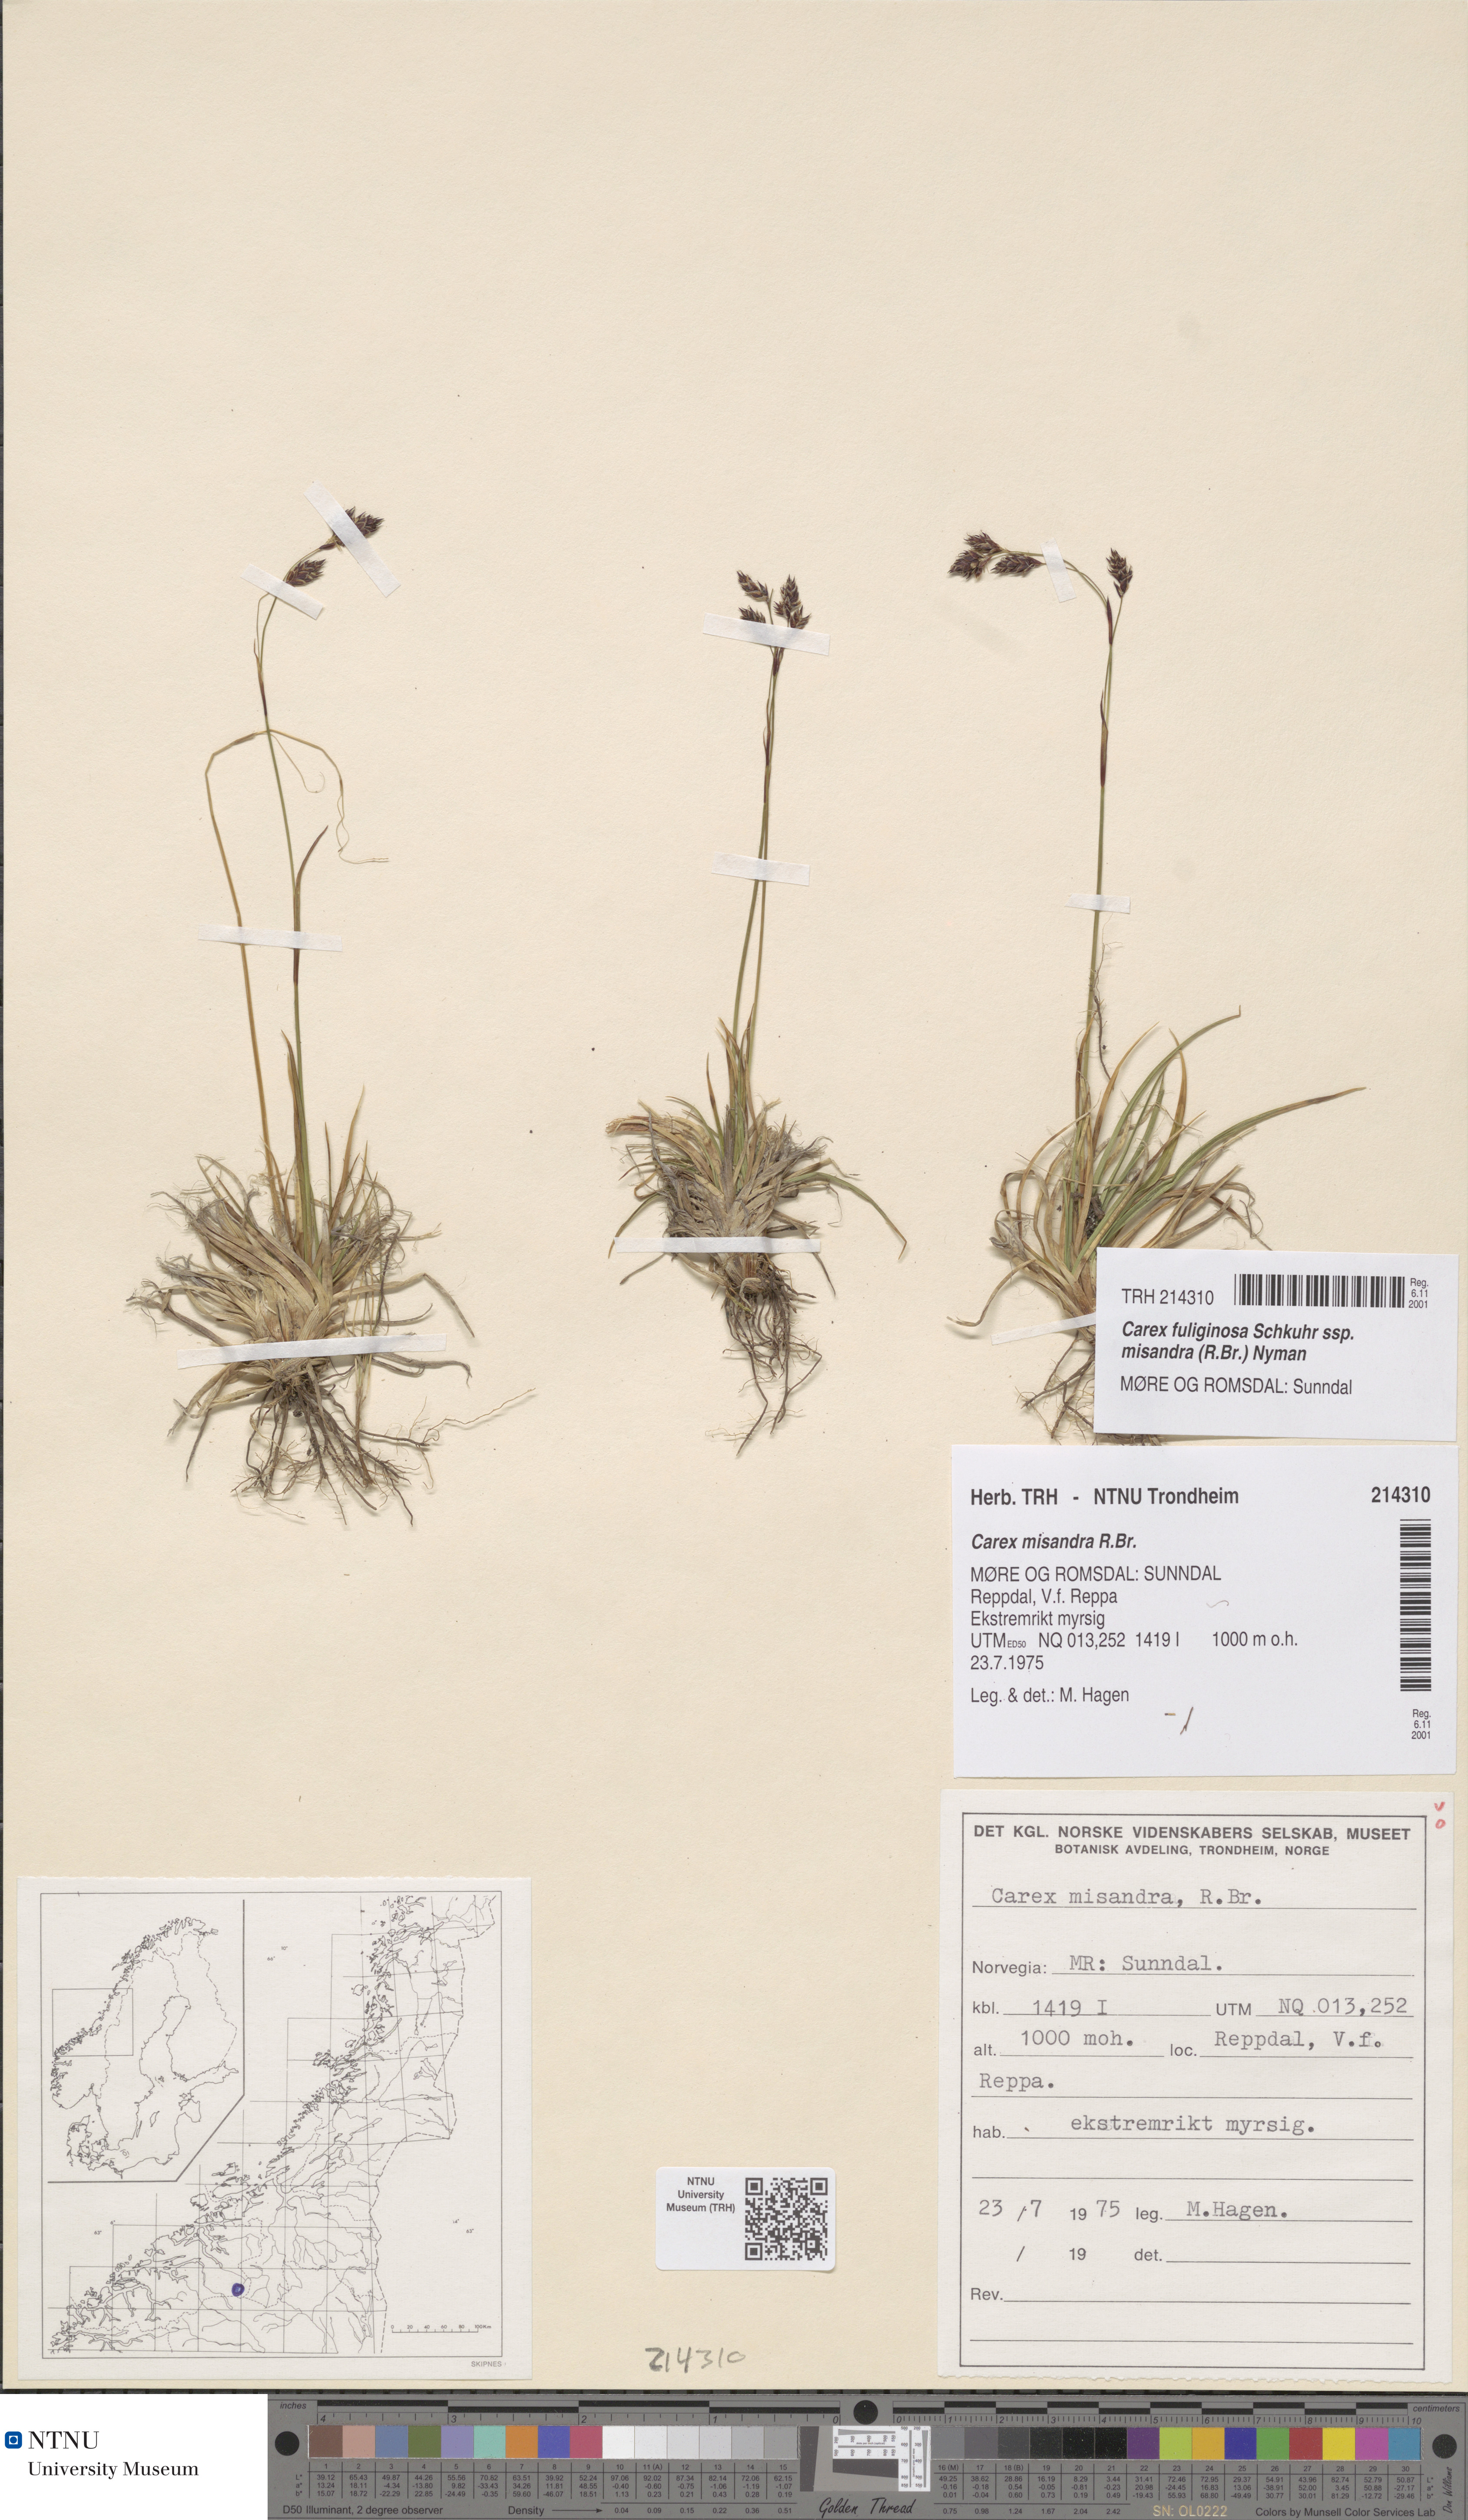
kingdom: Plantae
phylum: Tracheophyta
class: Liliopsida
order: Poales
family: Cyperaceae
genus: Carex
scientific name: Carex fuliginosa
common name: Few-flowered sedge
